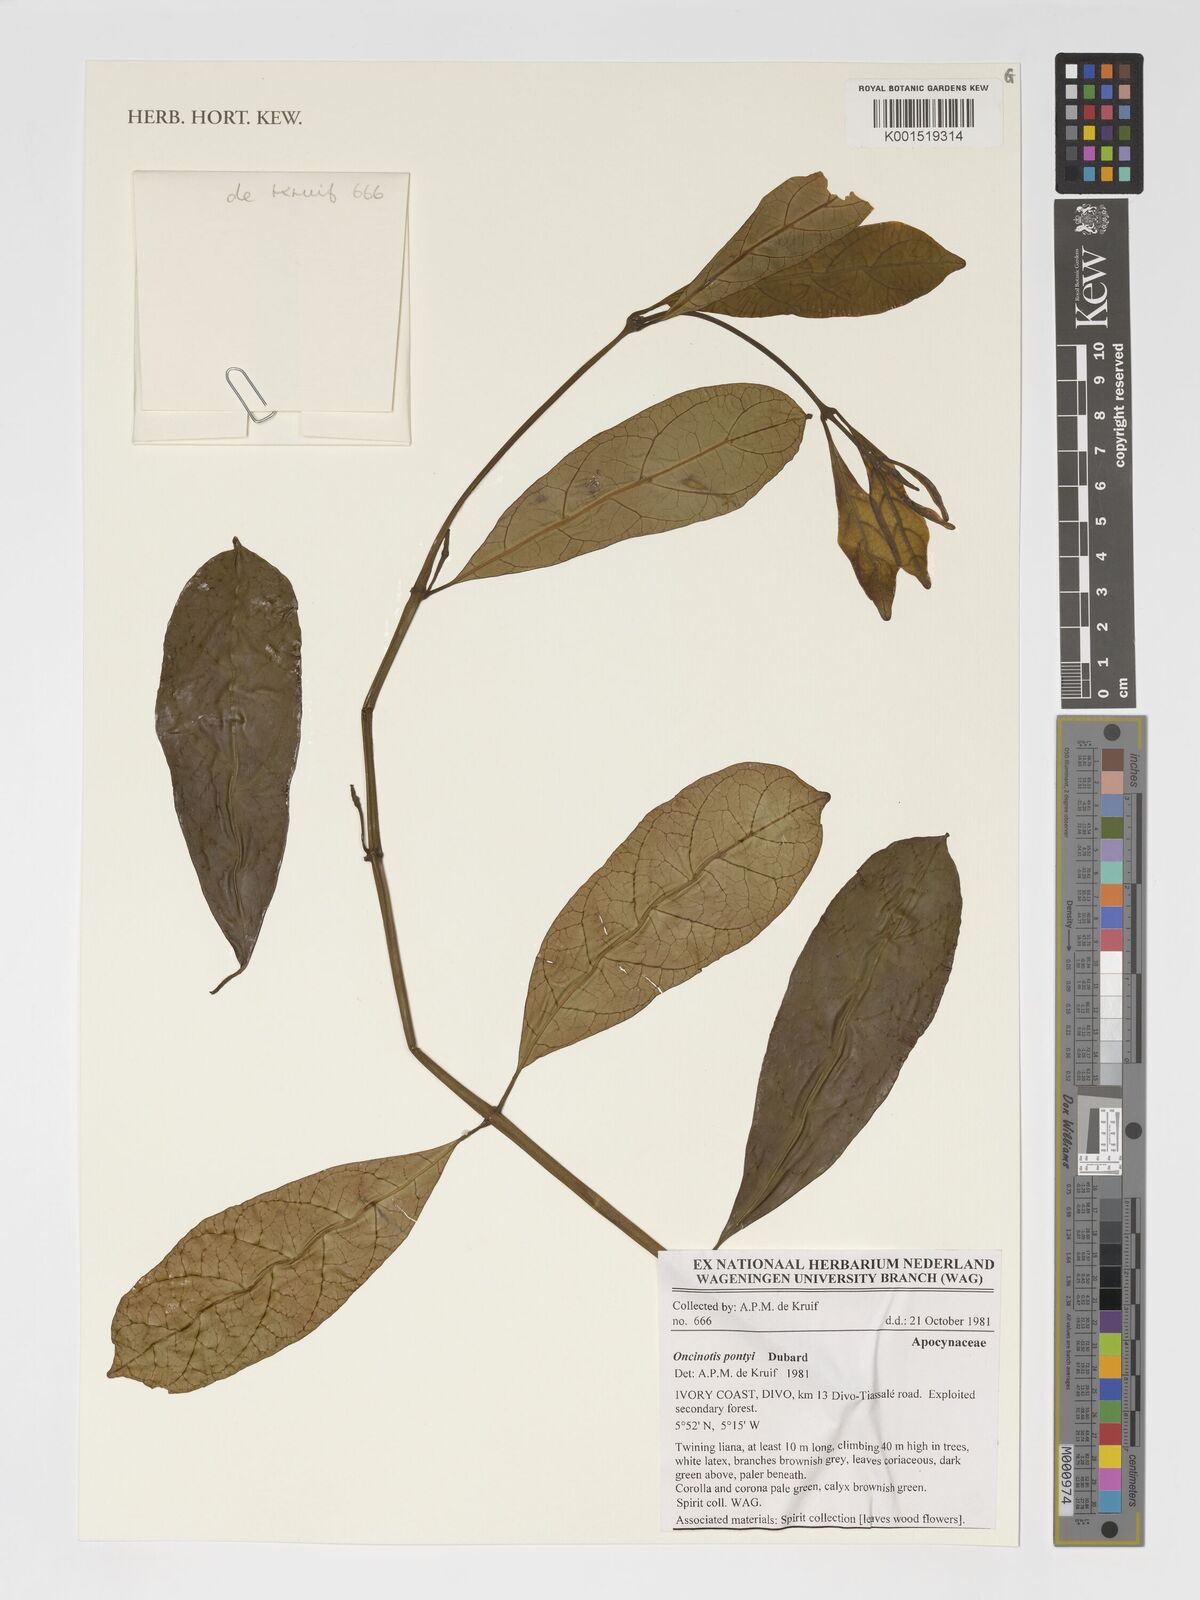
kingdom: Plantae
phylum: Tracheophyta
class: Magnoliopsida
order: Gentianales
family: Apocynaceae
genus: Oncinotis
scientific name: Oncinotis pontyi
